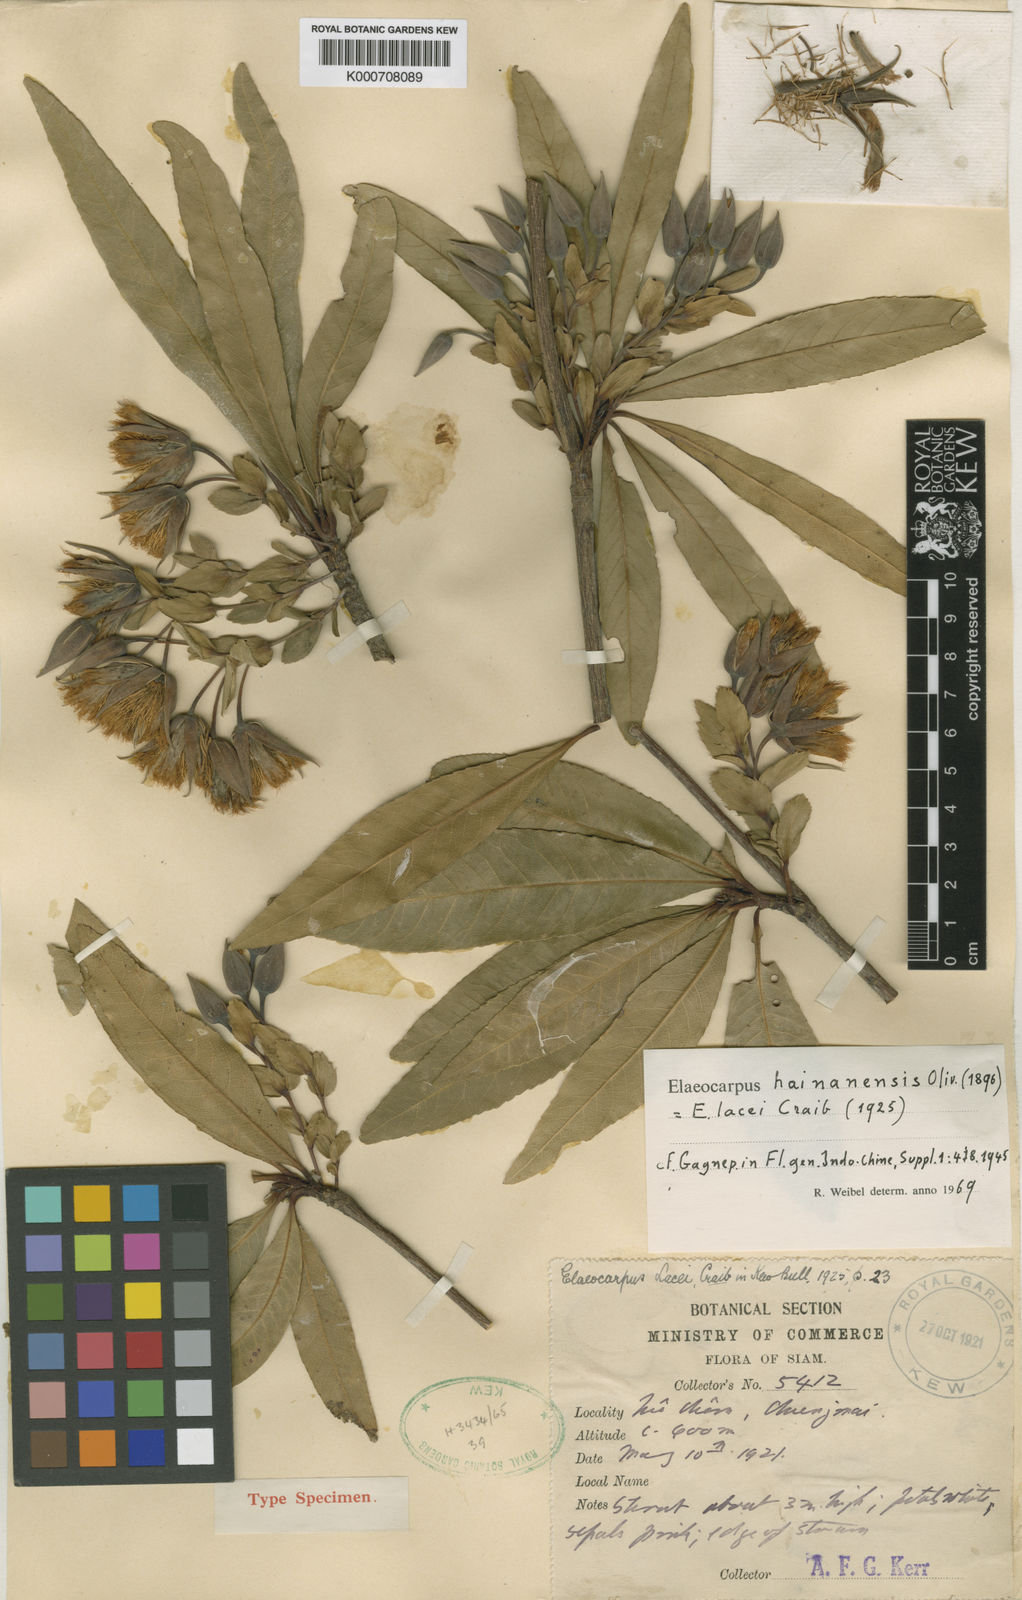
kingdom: Plantae
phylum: Tracheophyta
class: Magnoliopsida
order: Oxalidales
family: Elaeocarpaceae
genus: Elaeocarpus
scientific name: Elaeocarpus hainanensis
